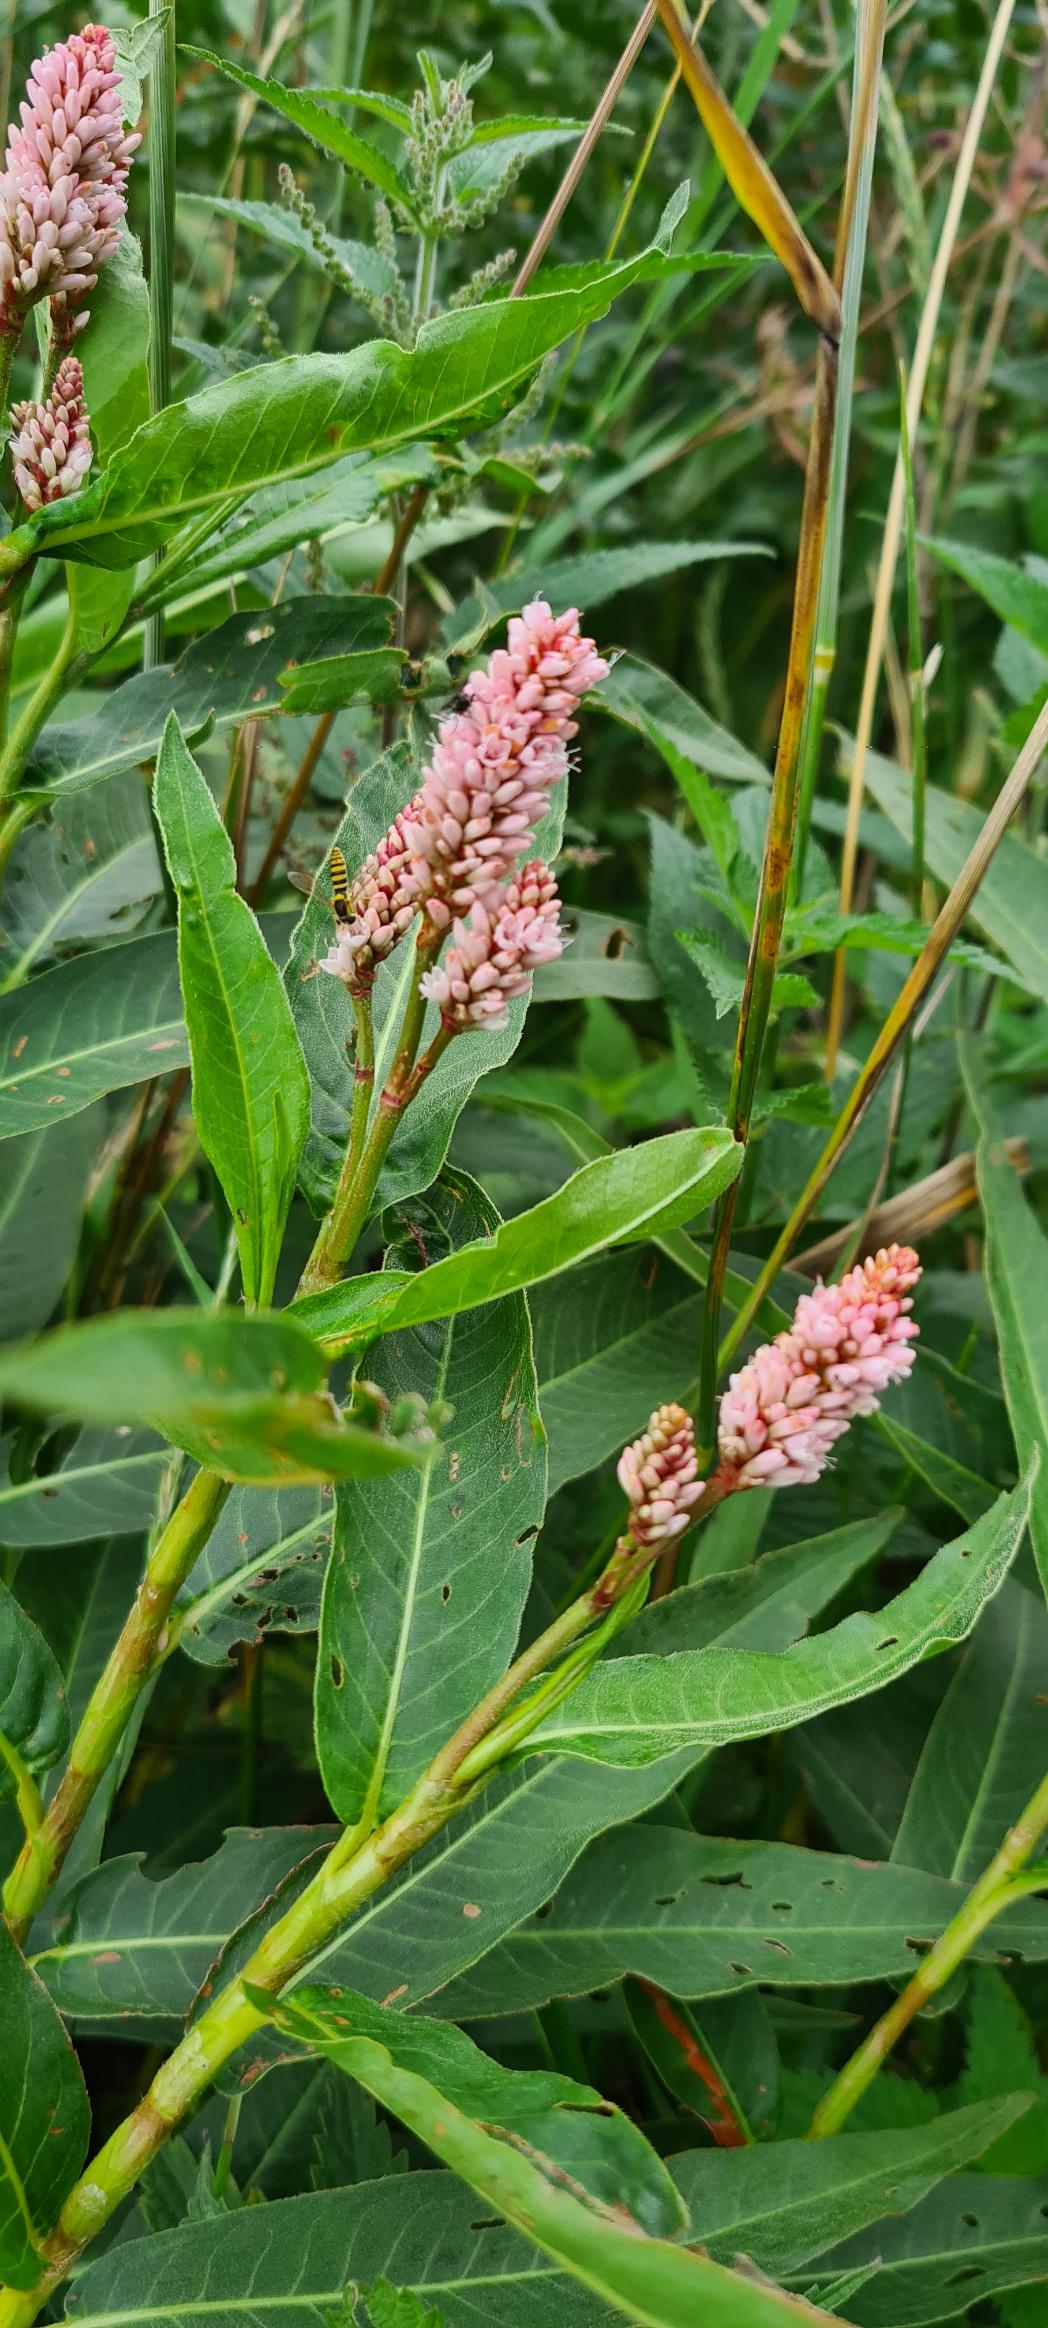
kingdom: Plantae
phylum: Tracheophyta
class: Magnoliopsida
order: Caryophyllales
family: Polygonaceae
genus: Persicaria
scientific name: Persicaria amphibia
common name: Vand-pileurt
